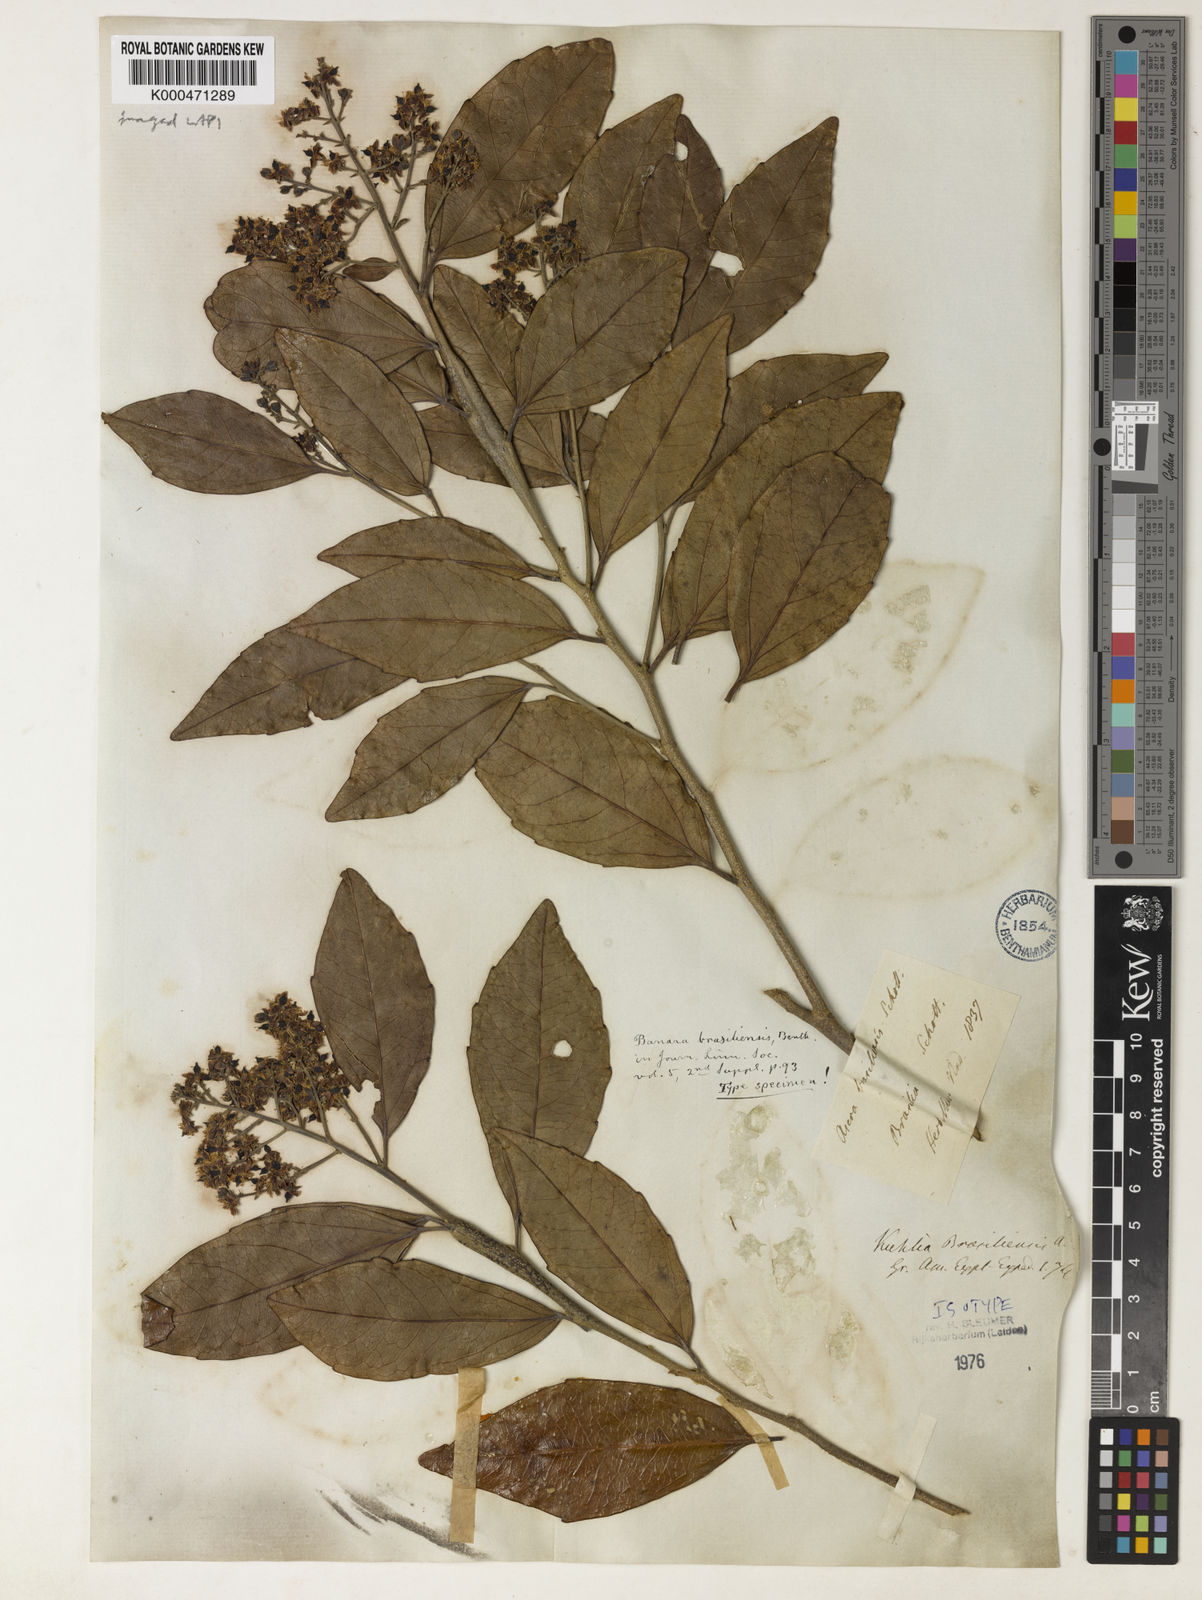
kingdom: Plantae
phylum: Tracheophyta
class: Magnoliopsida
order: Malpighiales
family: Salicaceae
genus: Banara
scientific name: Banara brasiliensis
